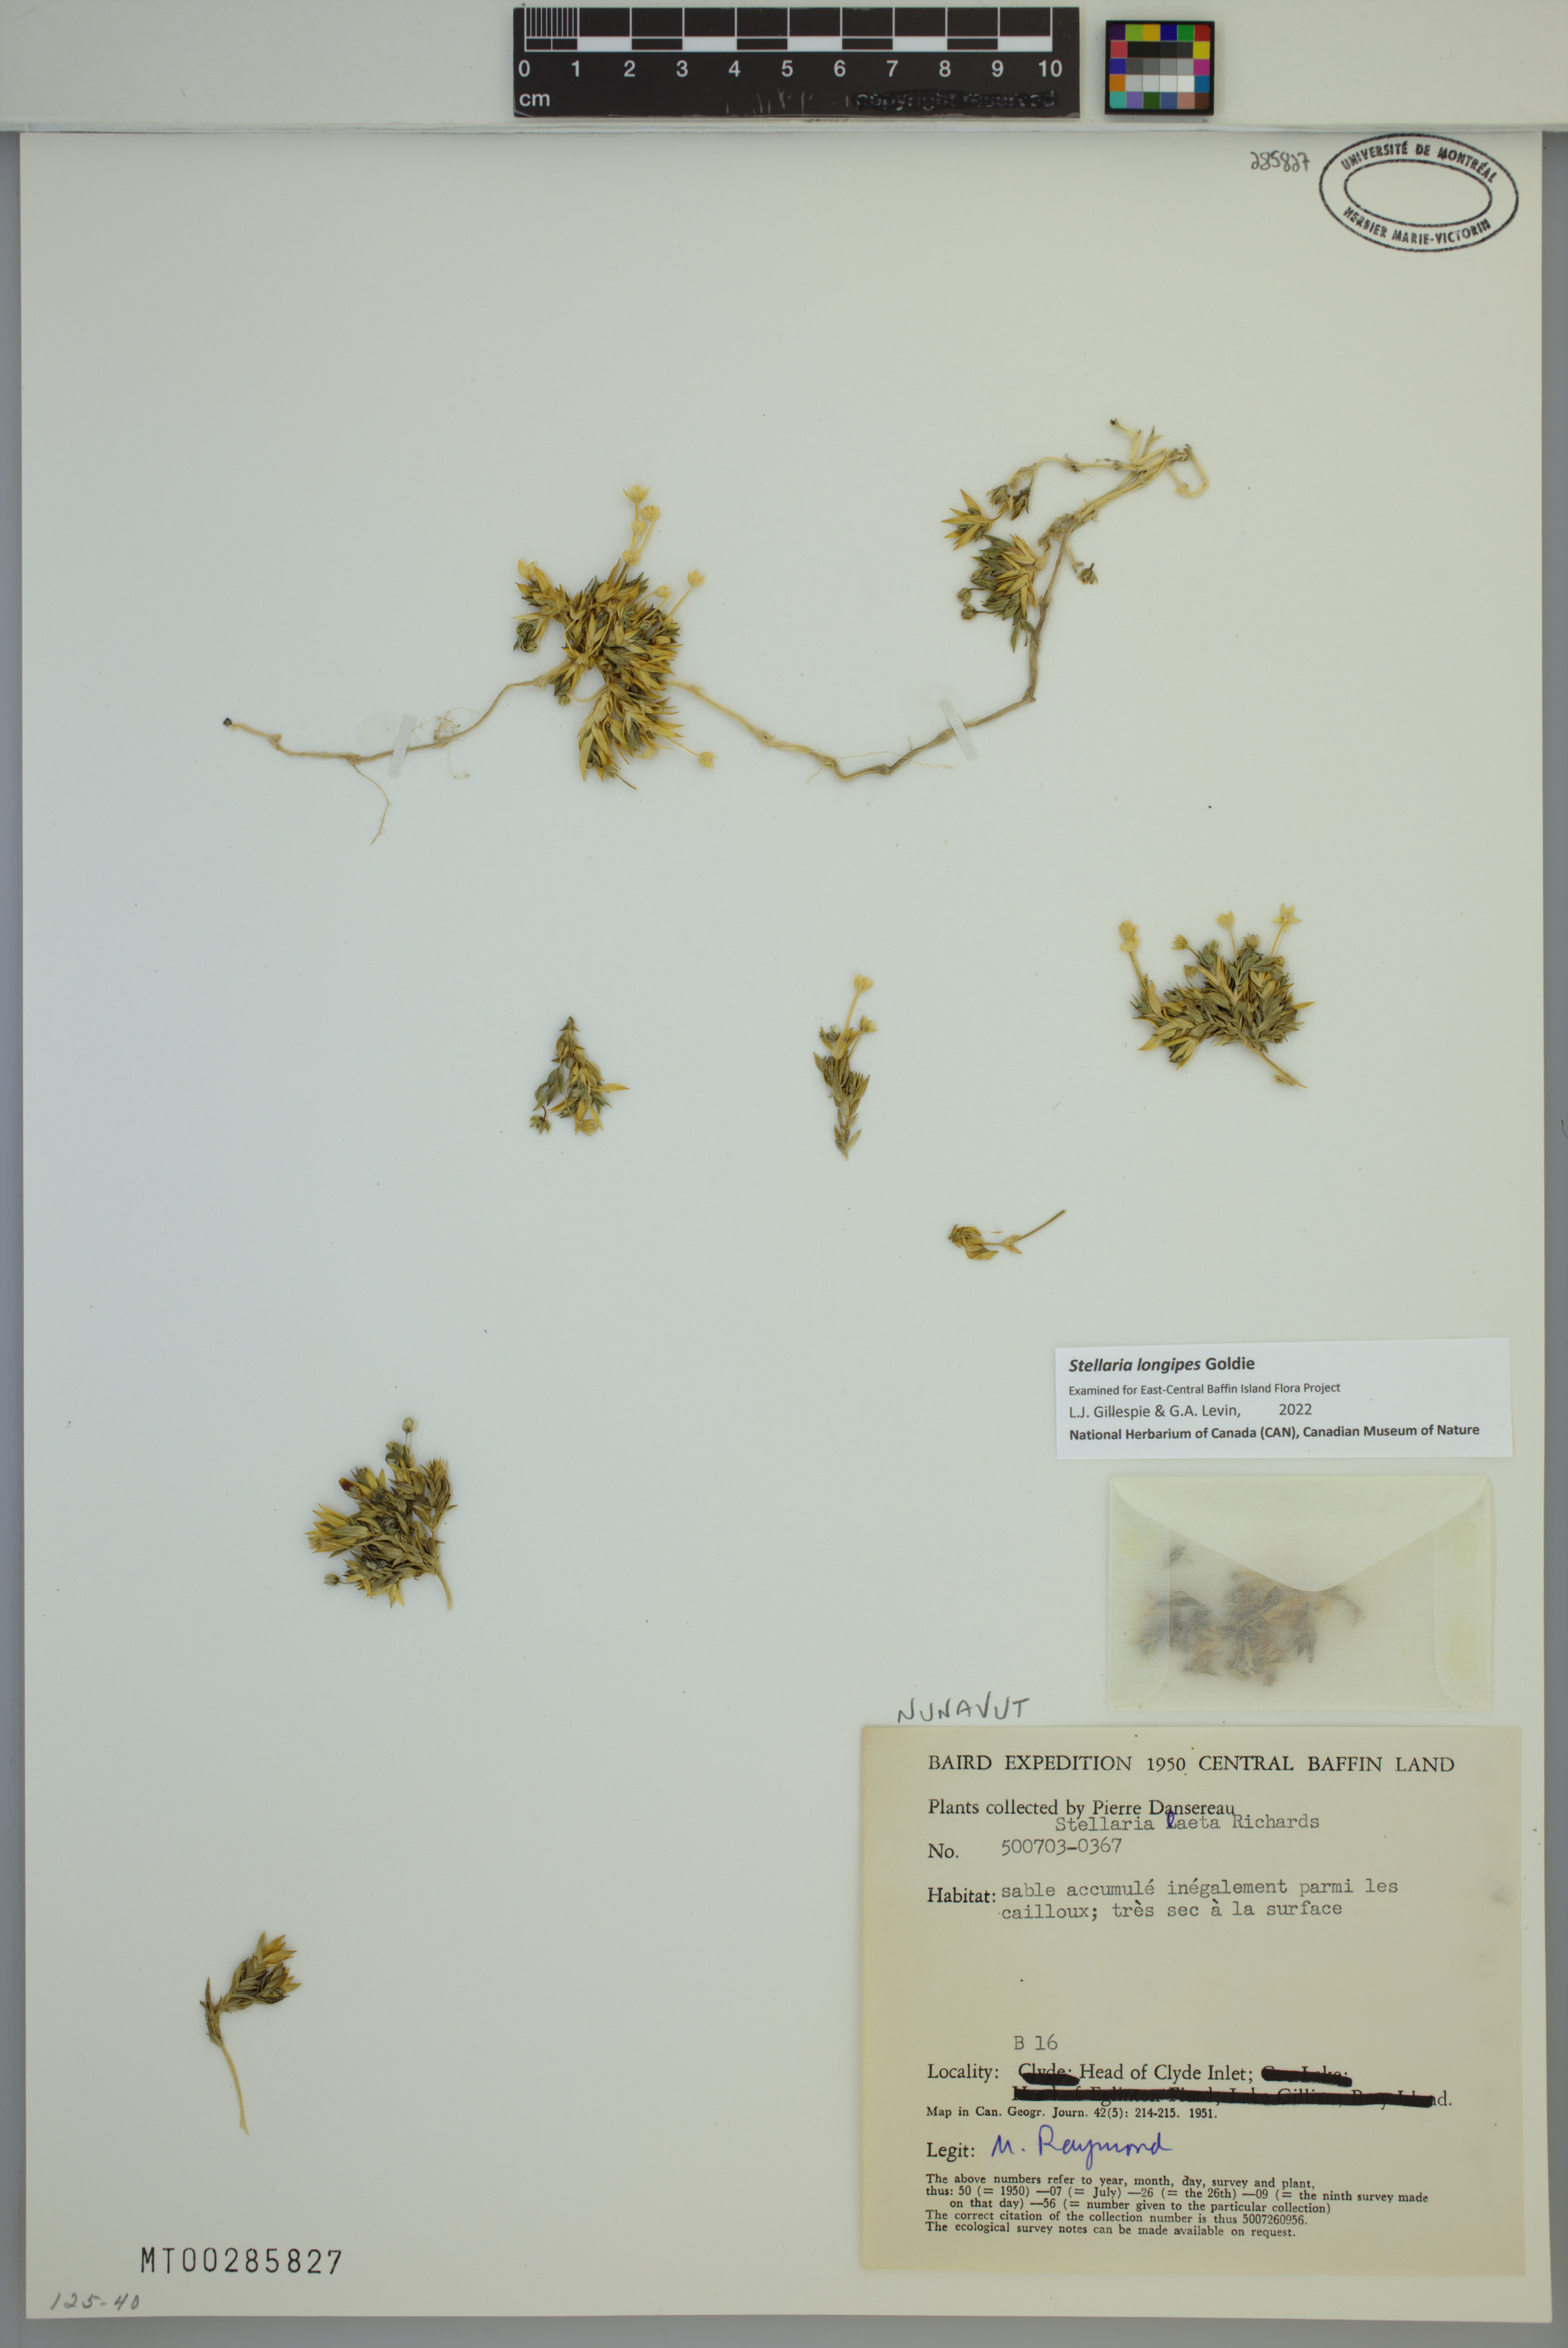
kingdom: Plantae
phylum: Tracheophyta
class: Magnoliopsida
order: Caryophyllales
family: Caryophyllaceae
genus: Stellaria
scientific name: Stellaria longipes
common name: Goldie's starwort
